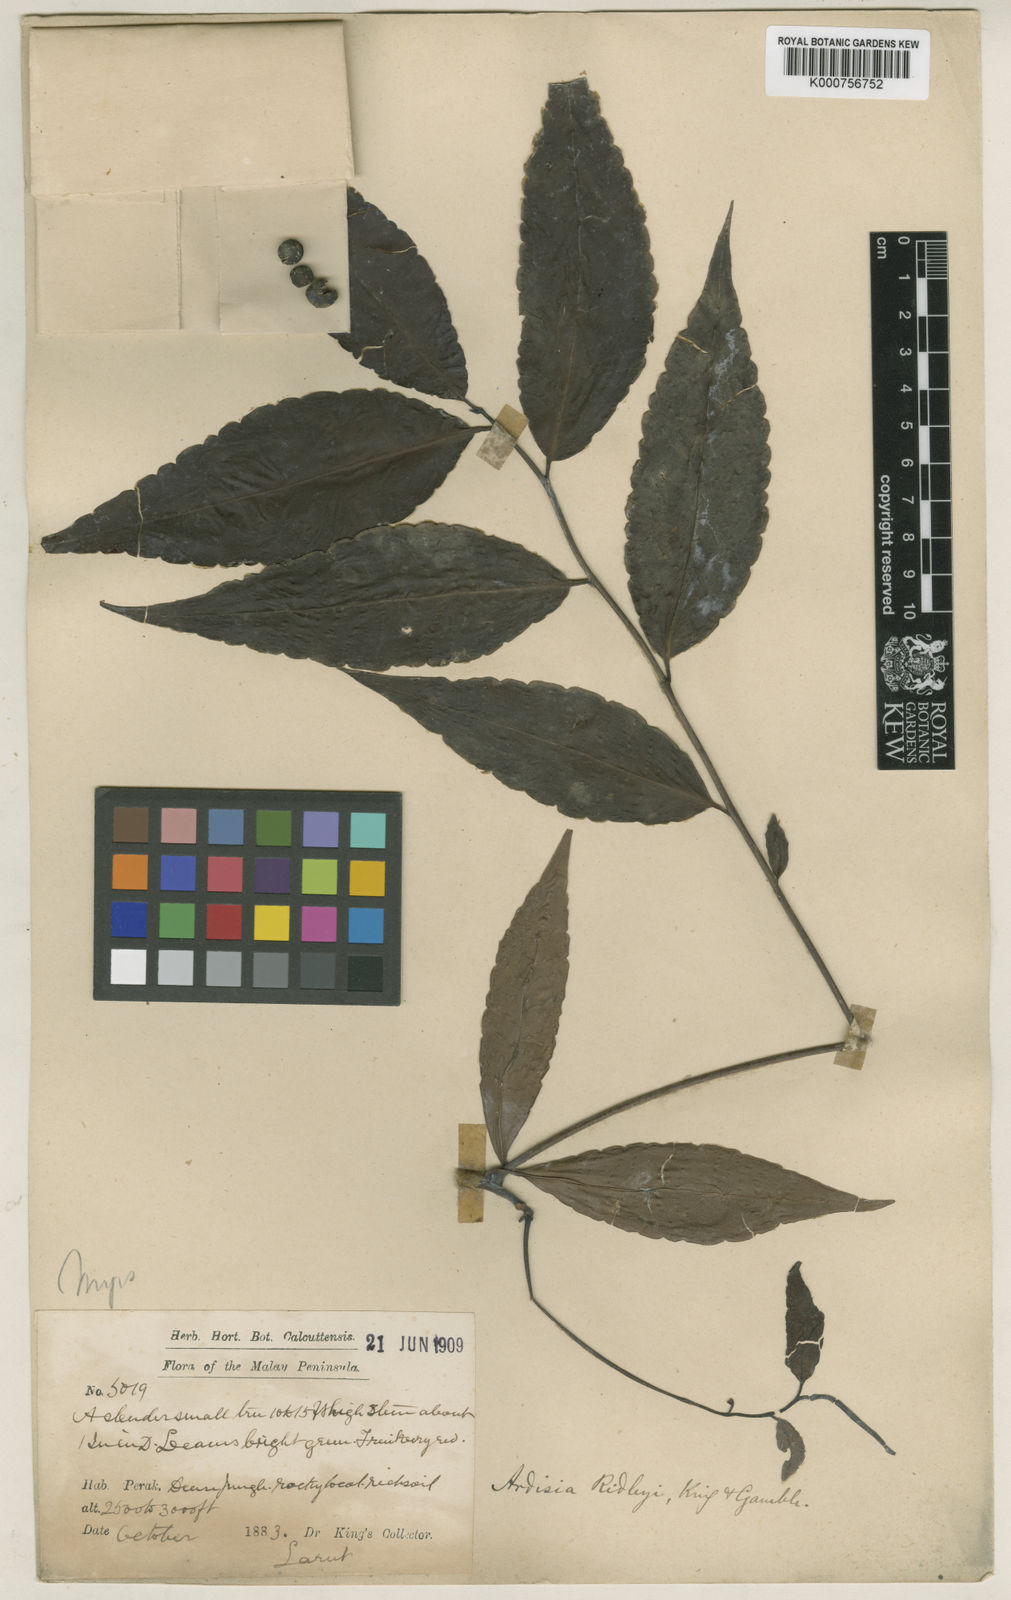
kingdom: Plantae
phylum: Tracheophyta
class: Magnoliopsida
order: Ericales
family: Primulaceae
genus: Ardisia
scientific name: Ardisia ridleyi
